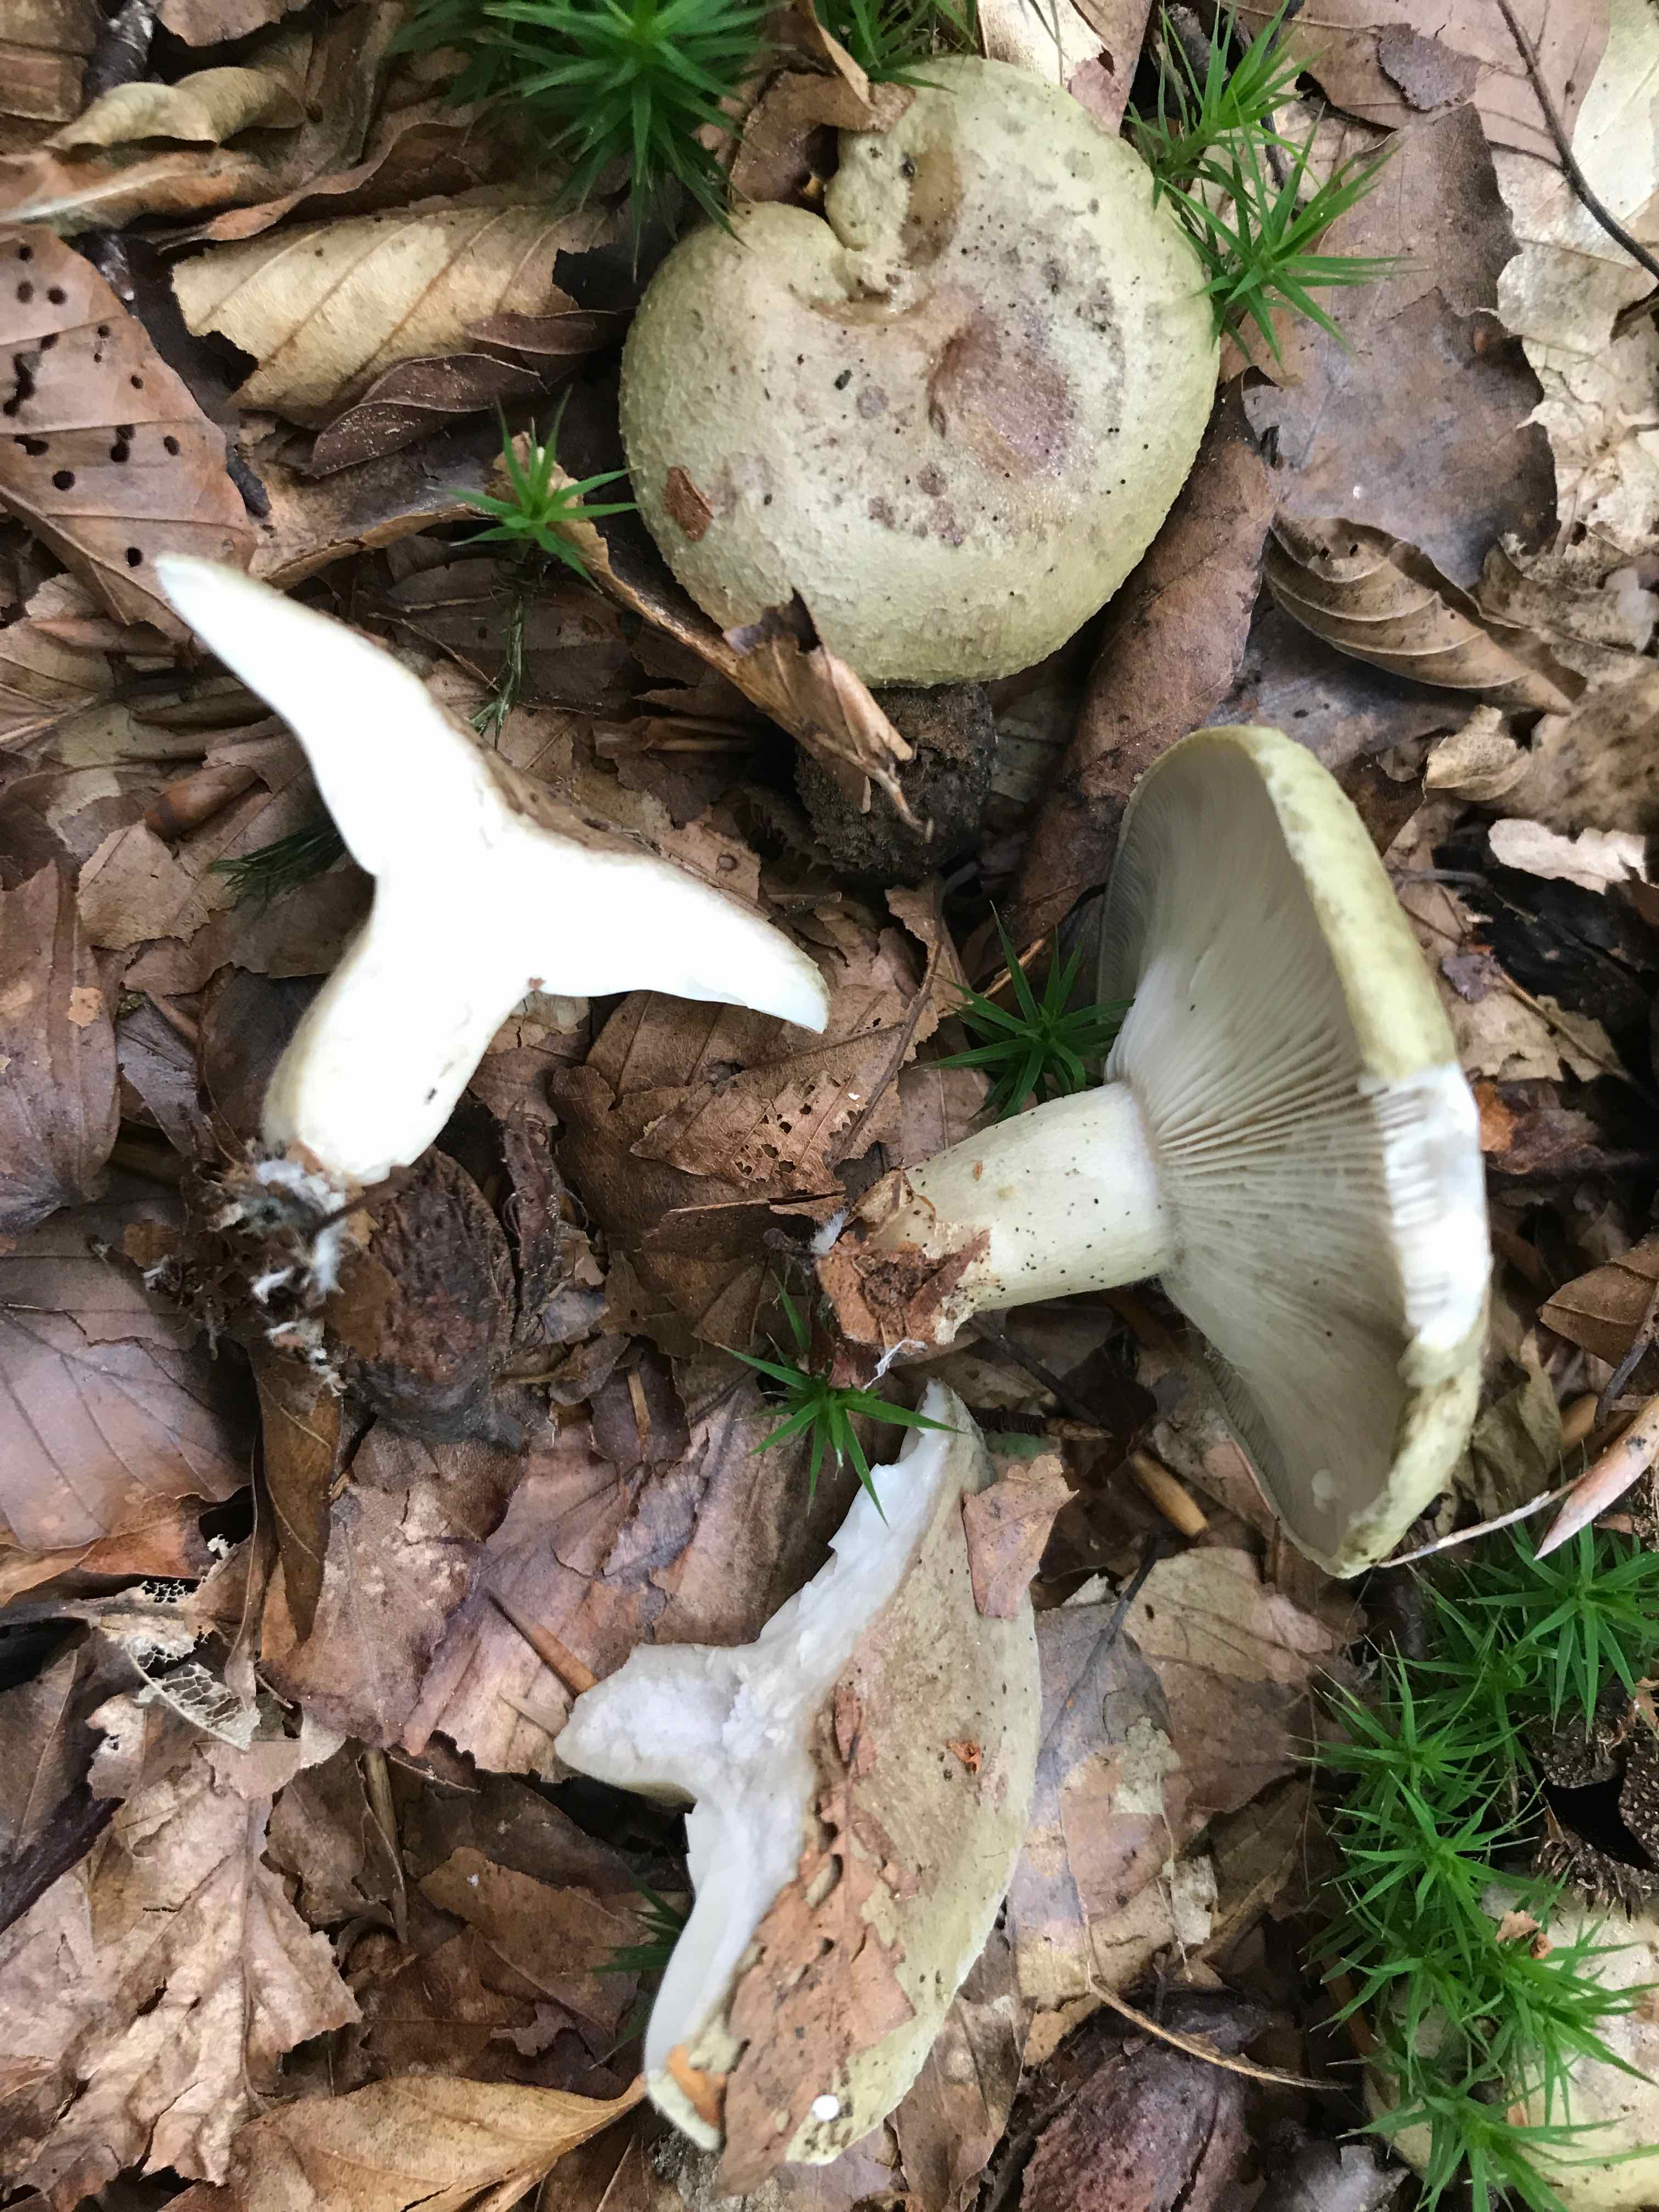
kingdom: Fungi
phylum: Basidiomycota
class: Agaricomycetes
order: Russulales
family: Russulaceae
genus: Lactarius
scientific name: Lactarius blennius
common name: dråbeplettet mælkehat
